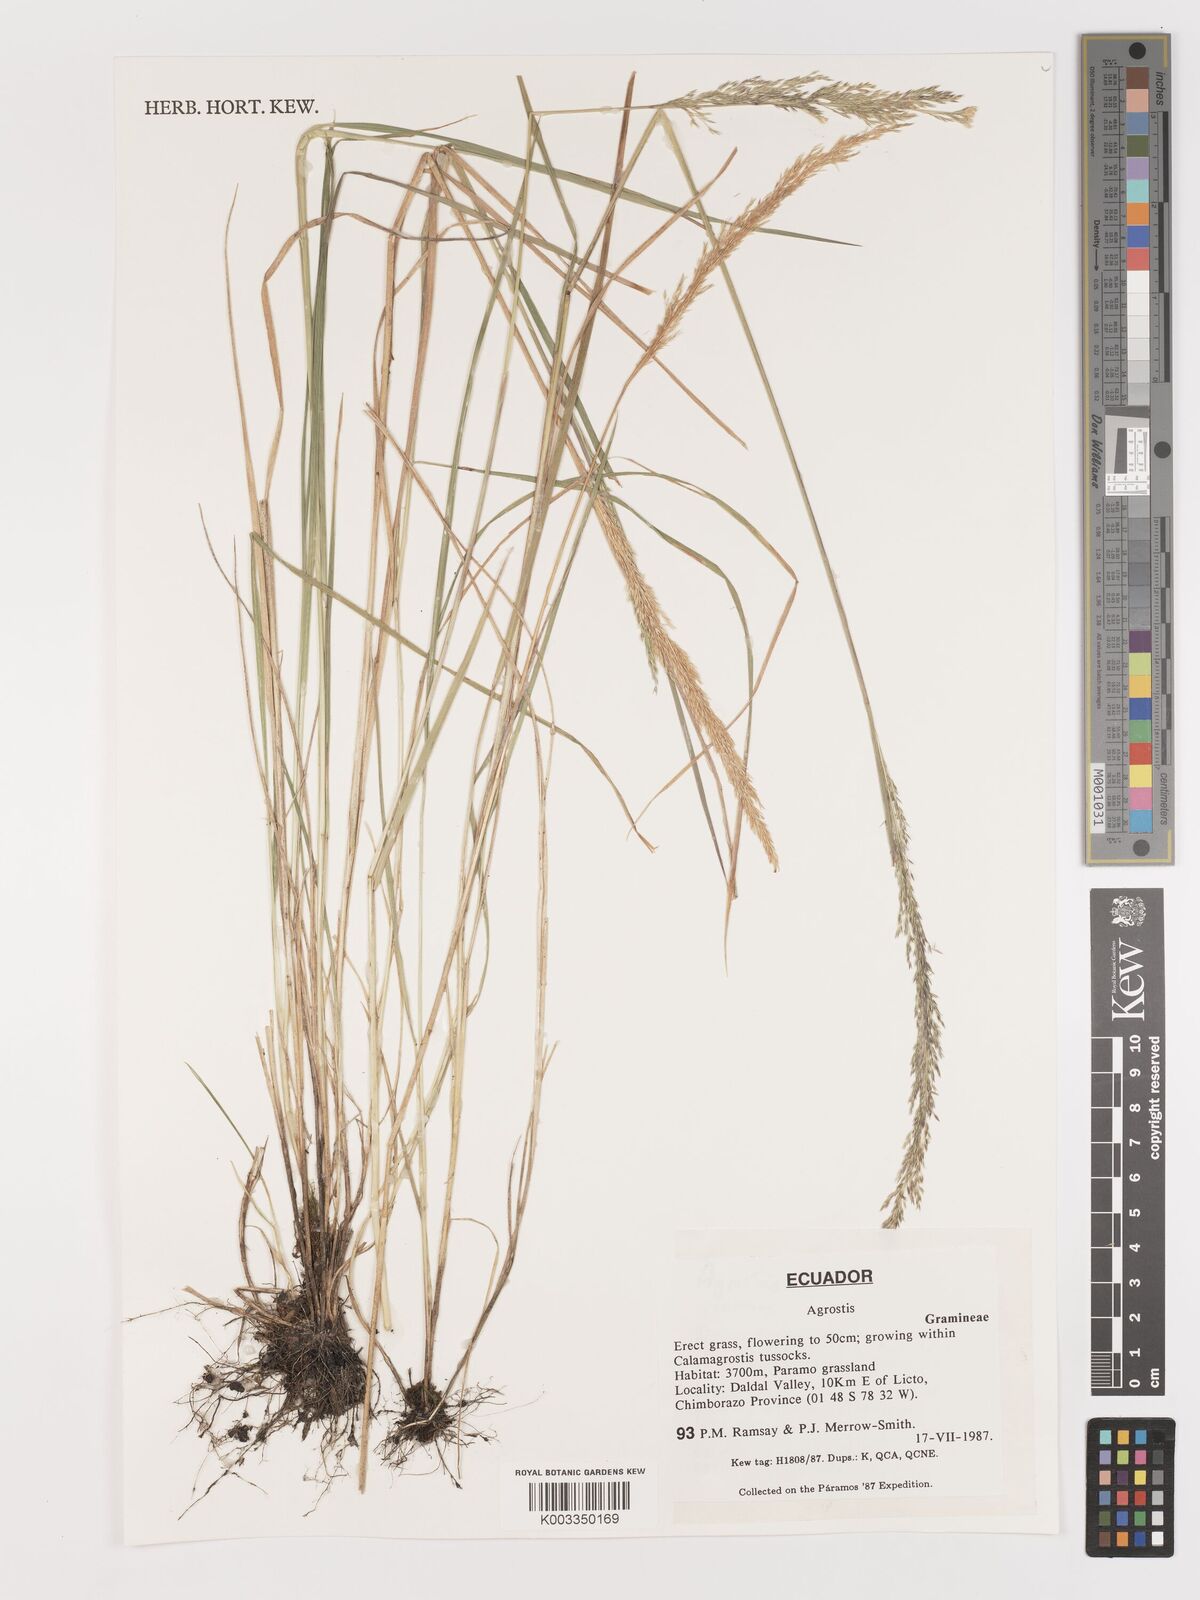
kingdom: Plantae
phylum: Tracheophyta
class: Liliopsida
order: Poales
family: Poaceae
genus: Agrostis
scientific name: Agrostis
